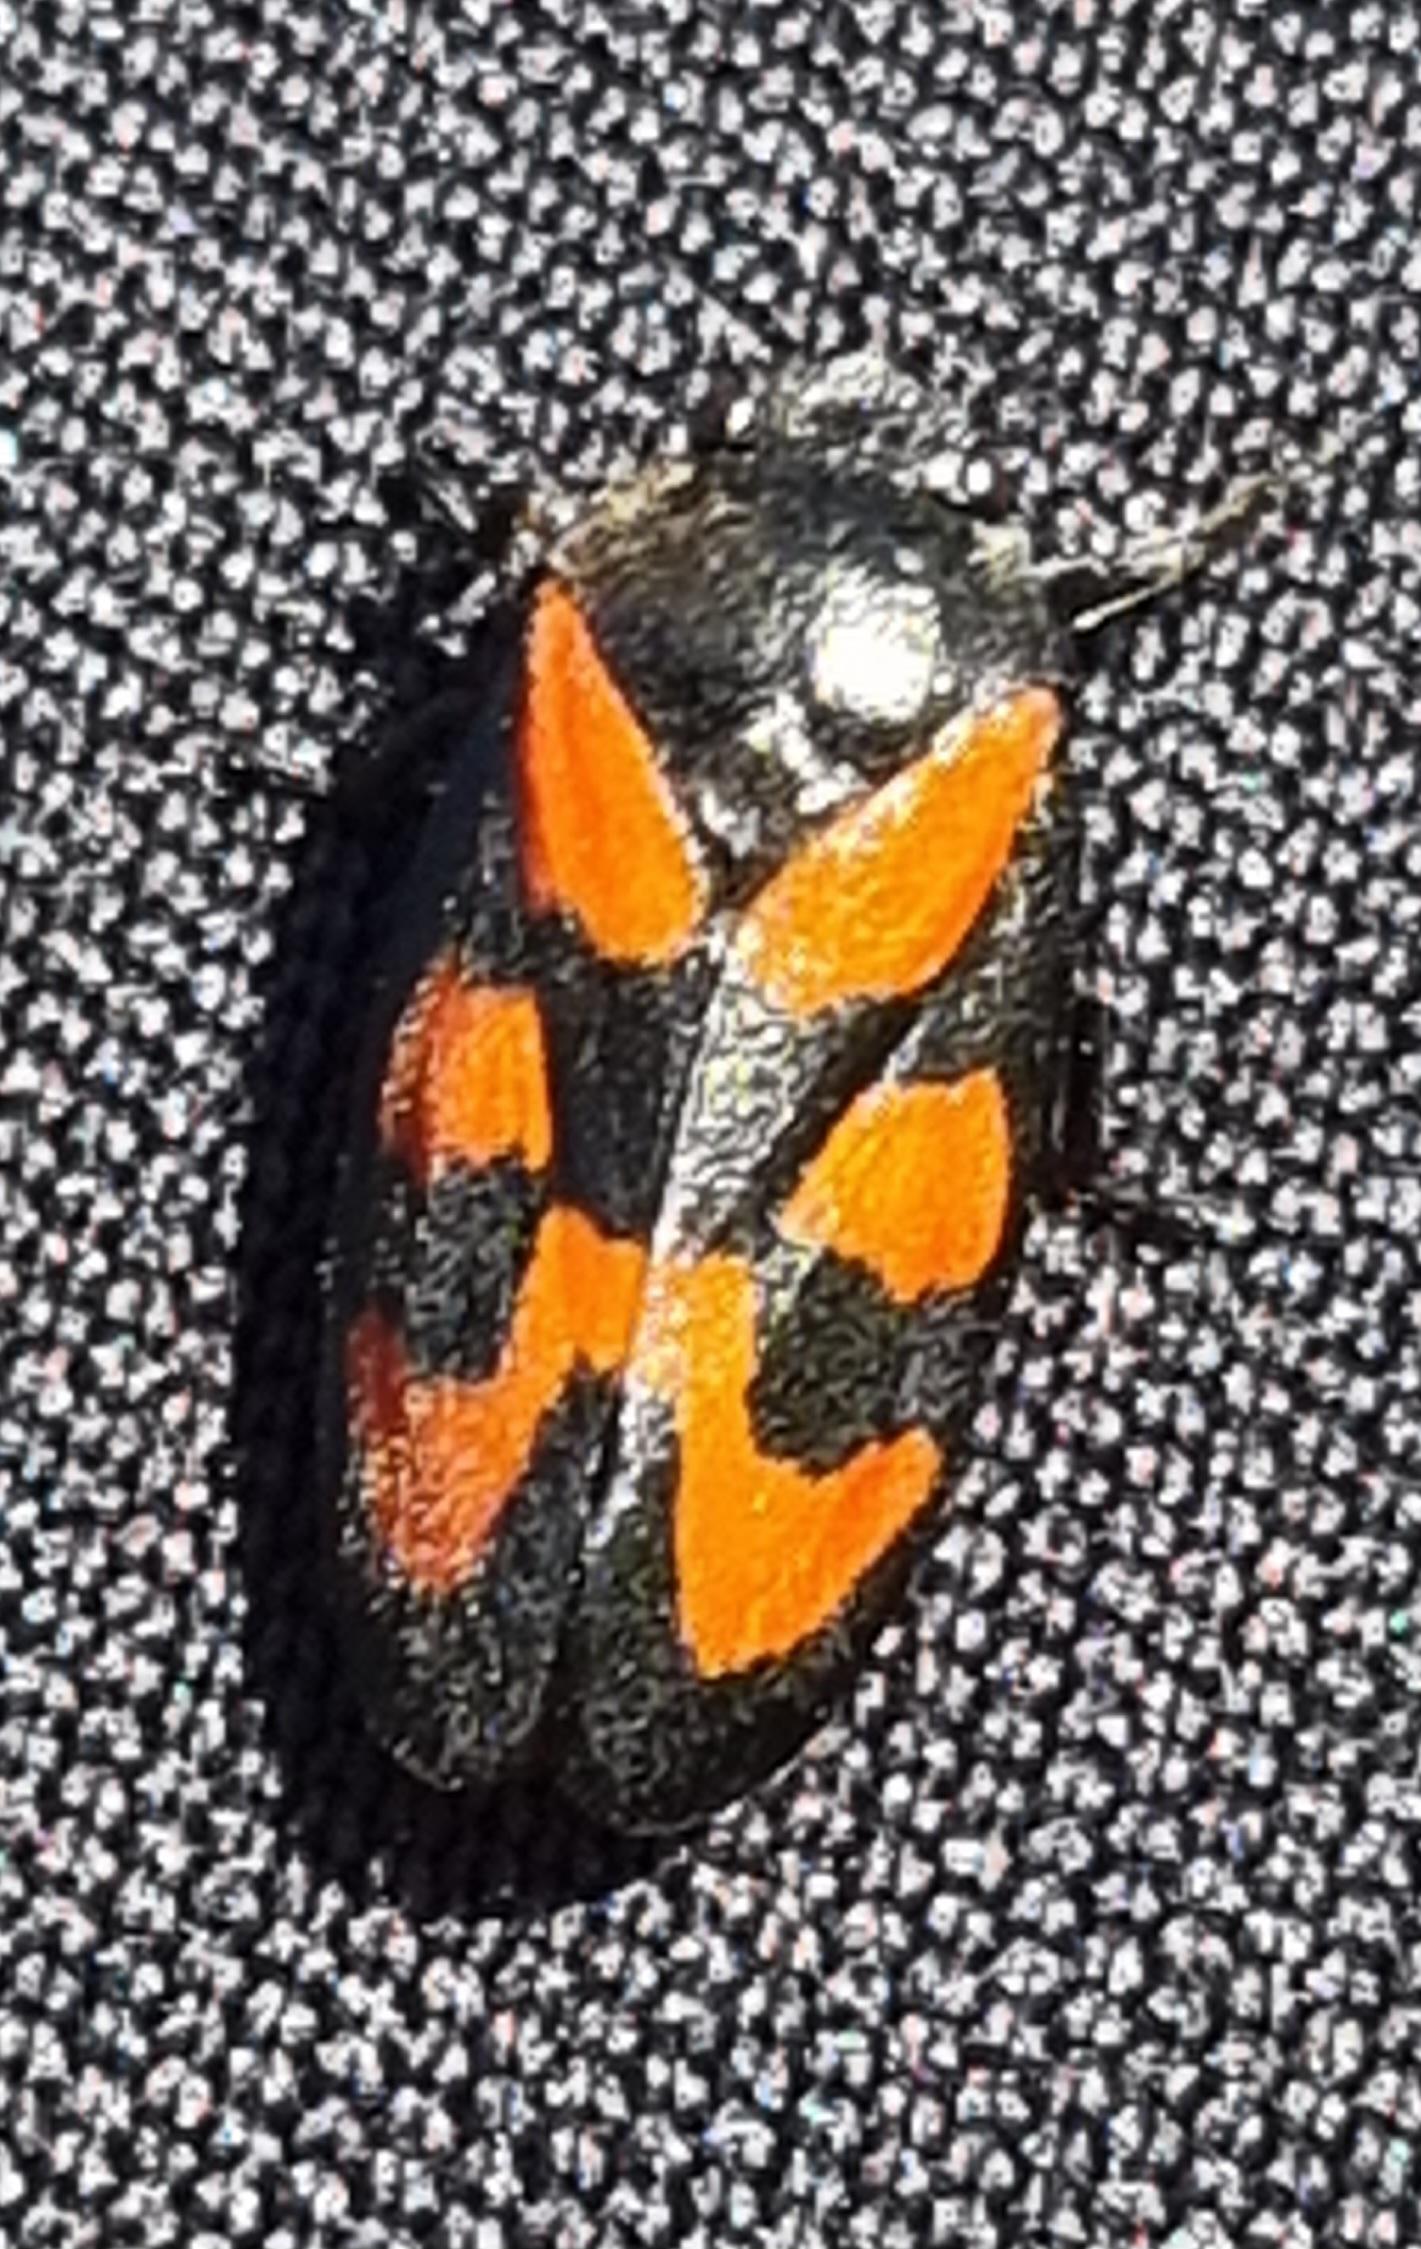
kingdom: Animalia
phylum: Arthropoda
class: Insecta
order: Hemiptera
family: Cercopidae
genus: Cercopis
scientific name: Cercopis vulnerata
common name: Blodcikade
